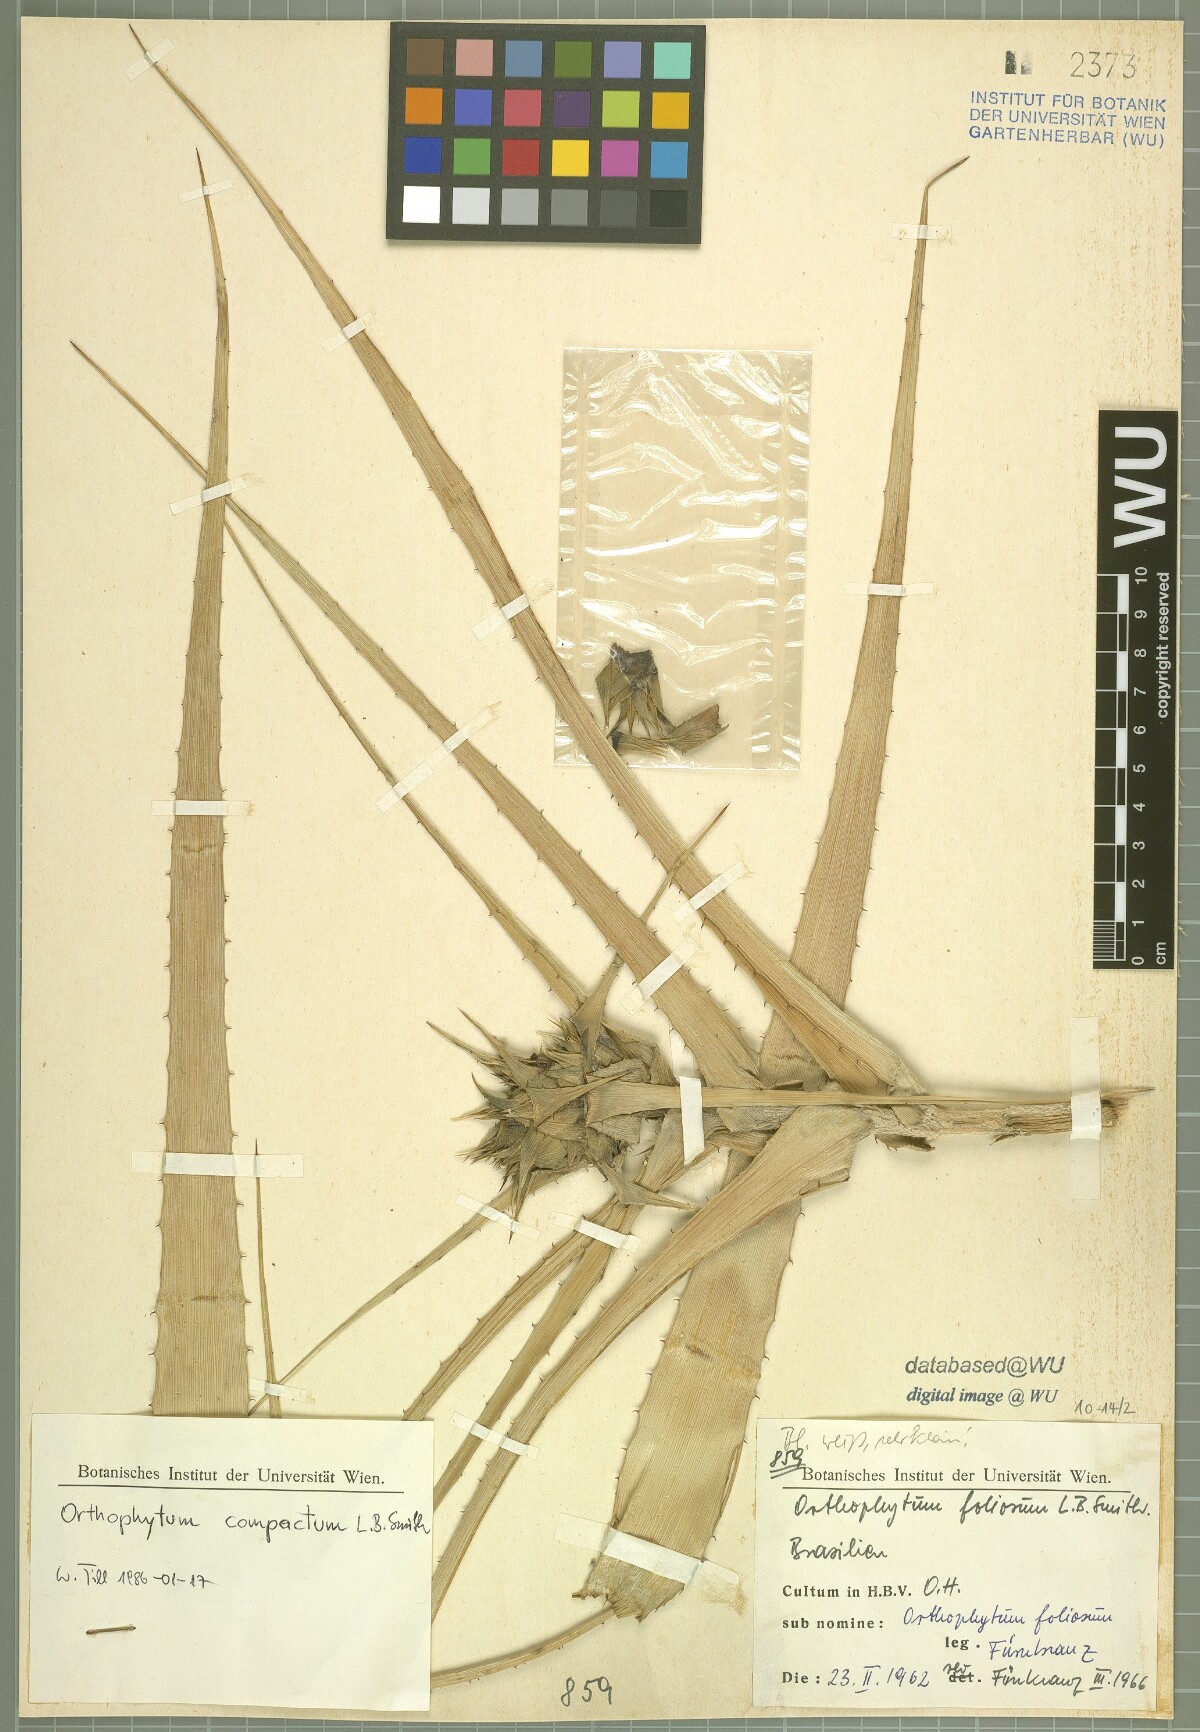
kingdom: Plantae
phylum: Tracheophyta
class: Liliopsida
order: Poales
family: Bromeliaceae
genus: Orthophytum
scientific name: Orthophytum compactum
